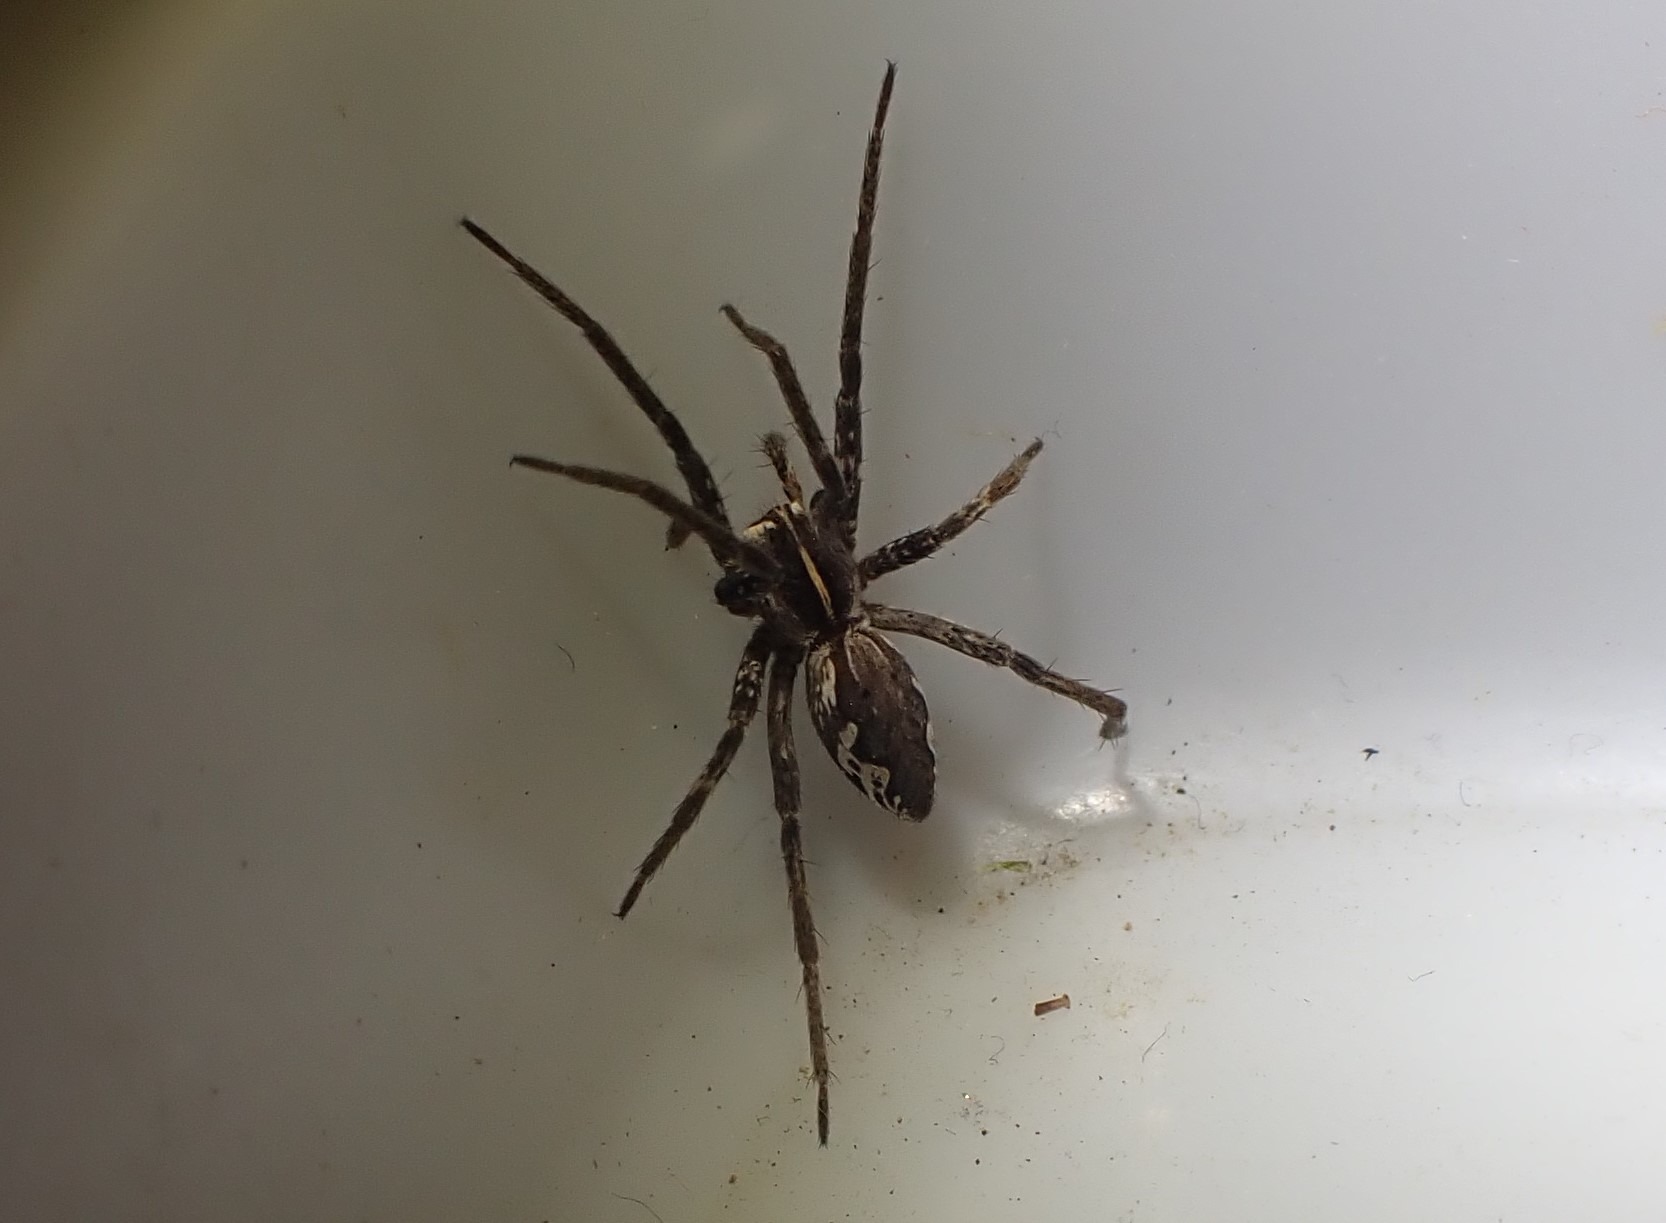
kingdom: Animalia
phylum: Arthropoda
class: Arachnida
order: Araneae
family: Pisauridae
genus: Pisaura
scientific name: Pisaura mirabilis
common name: Almindelig rovedderkop
